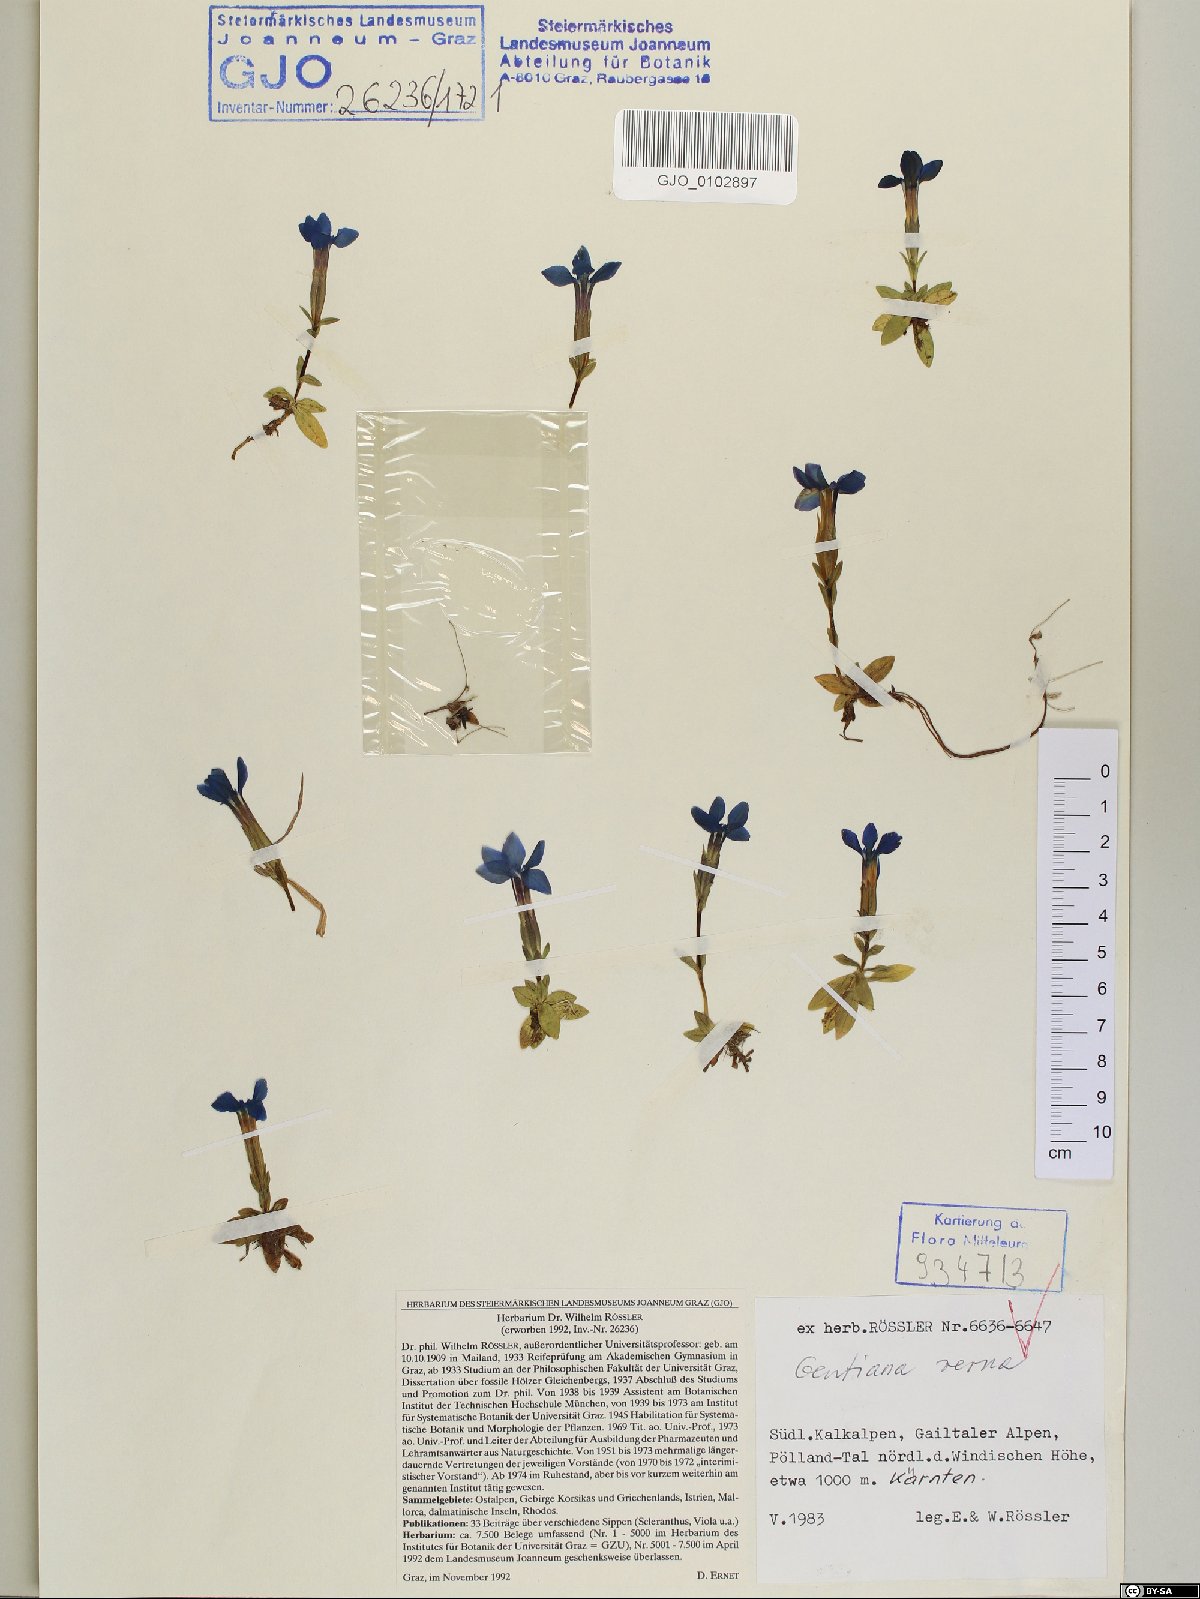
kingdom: Plantae
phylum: Tracheophyta
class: Magnoliopsida
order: Gentianales
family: Gentianaceae
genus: Gentiana
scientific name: Gentiana verna
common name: Spring gentian
